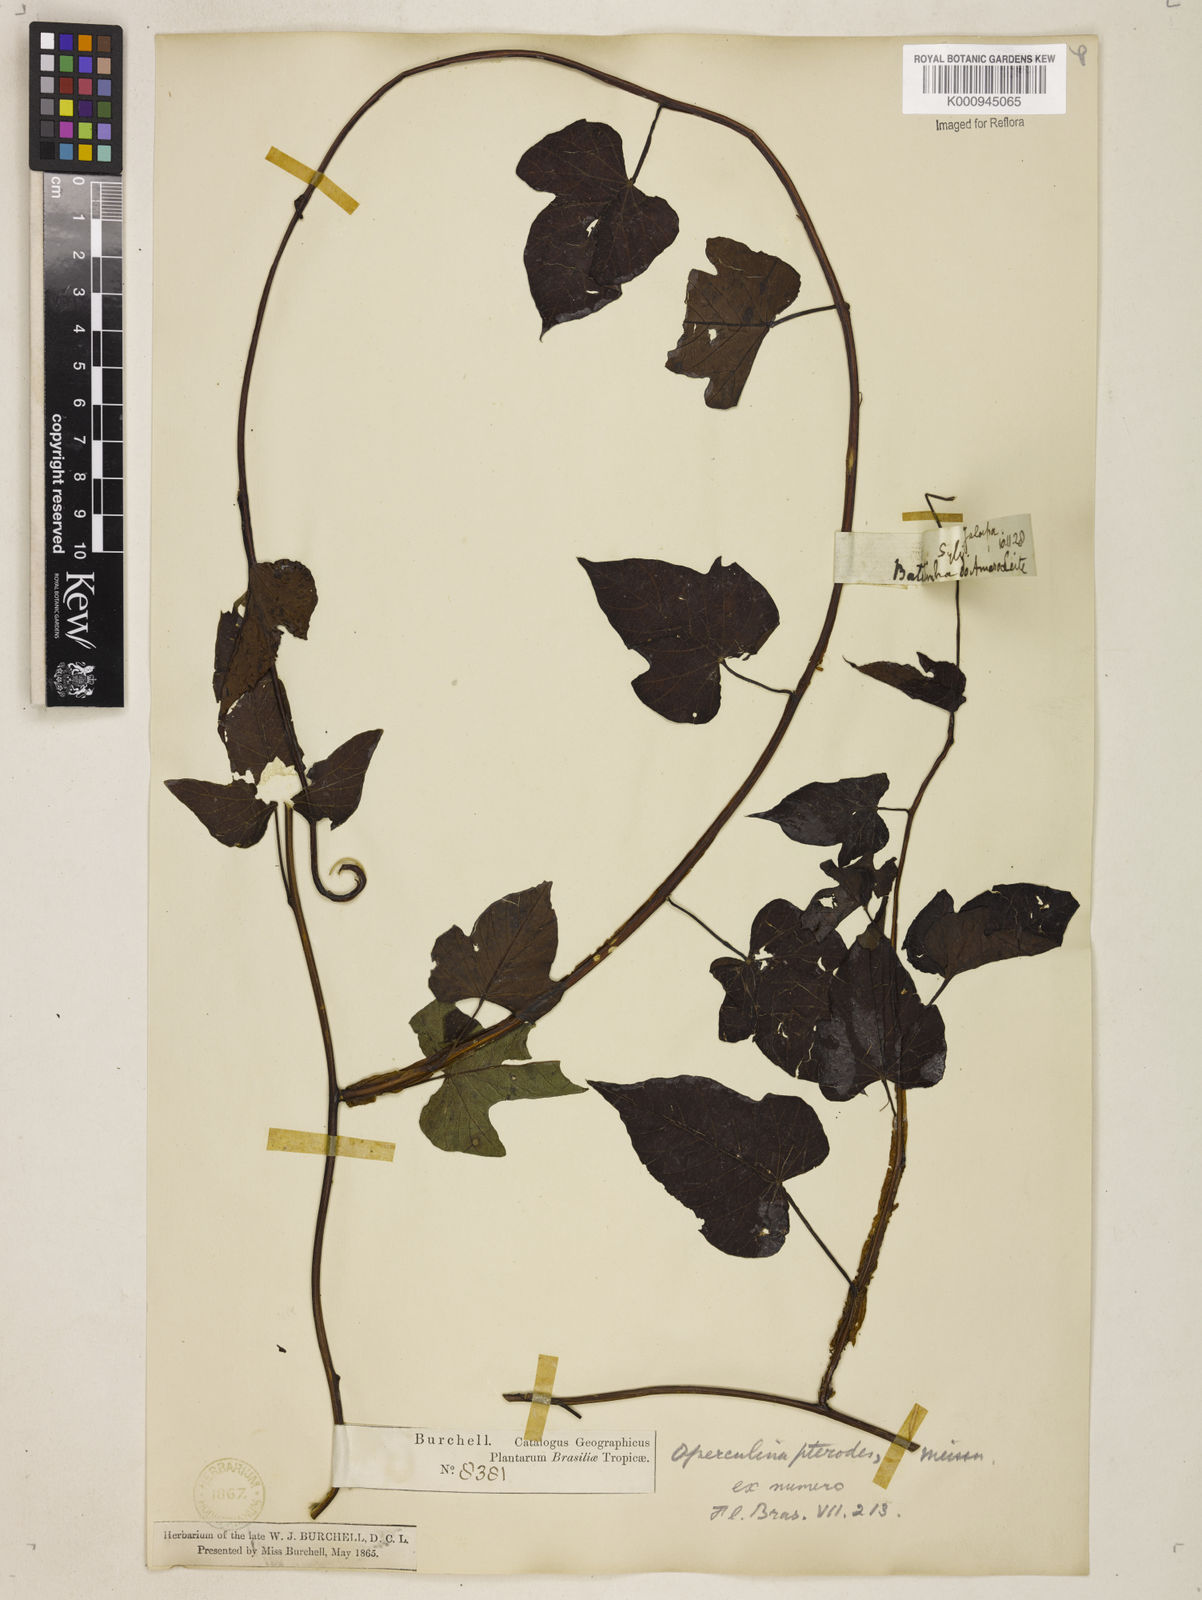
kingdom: Plantae
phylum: Tracheophyta
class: Magnoliopsida
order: Solanales
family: Convolvulaceae
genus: Operculina
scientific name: Operculina hamiltonii
